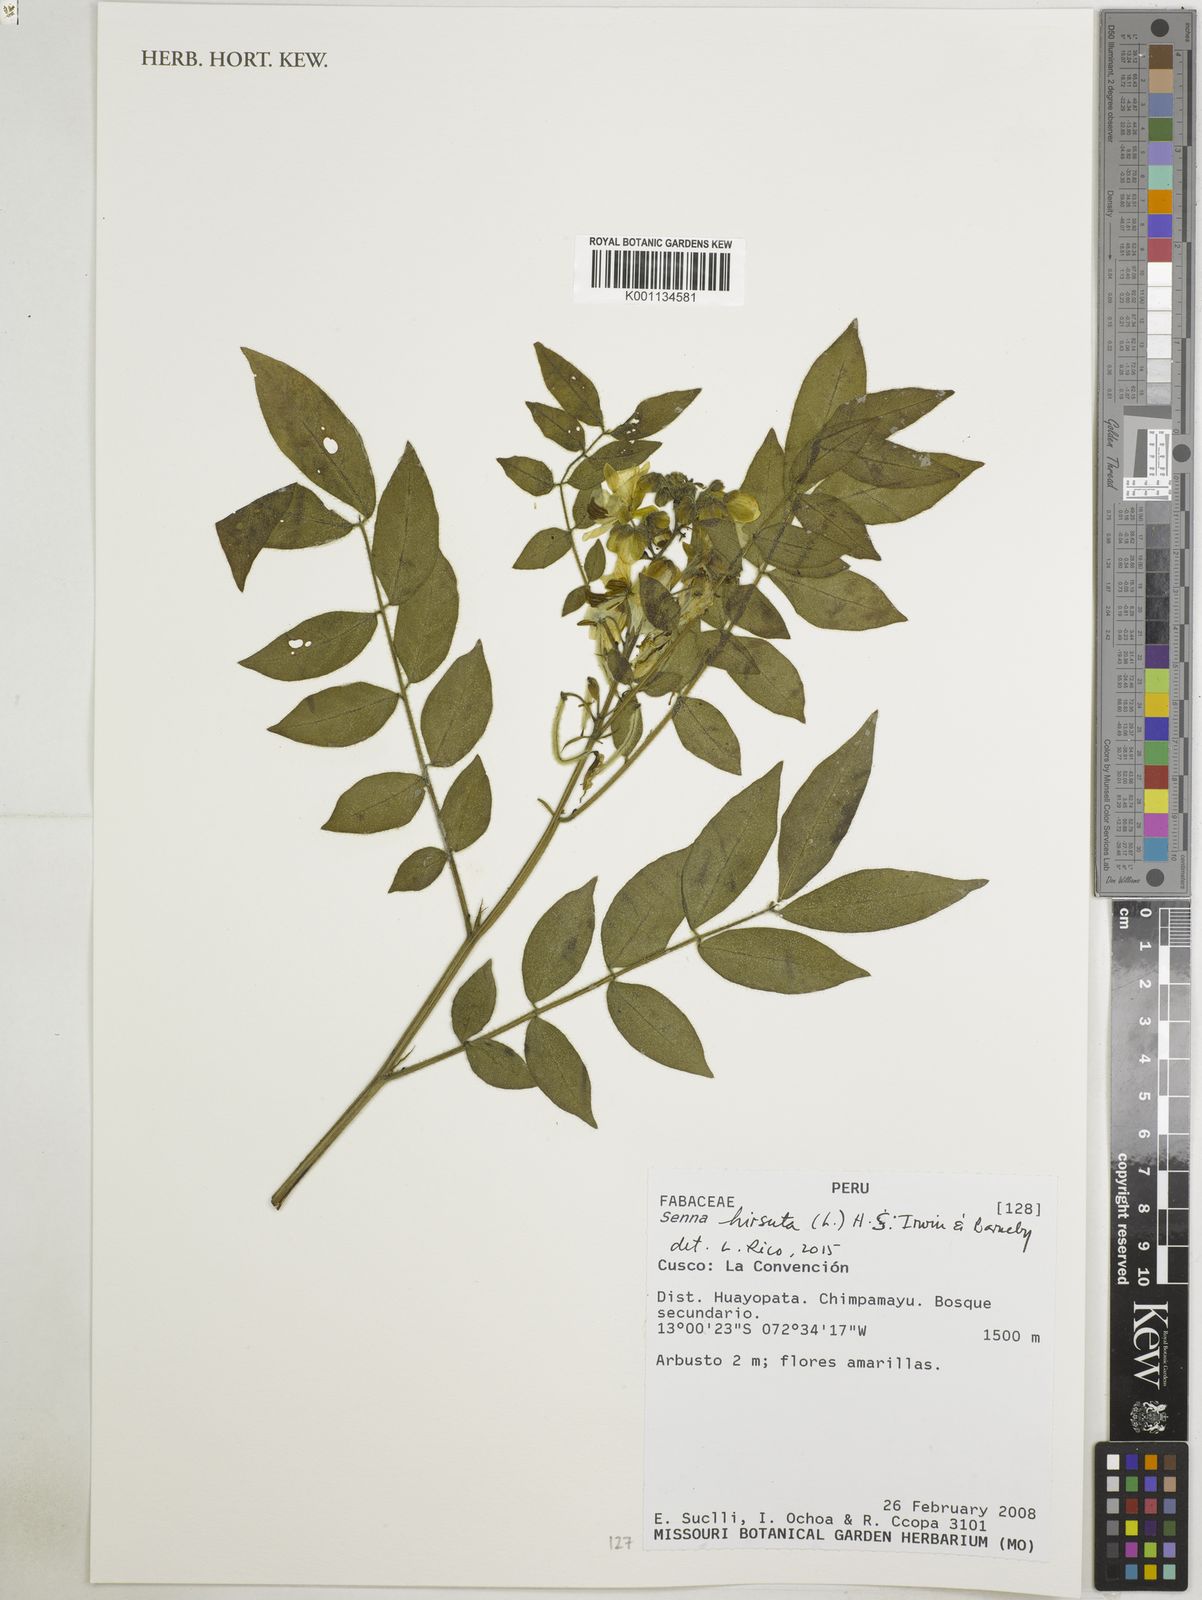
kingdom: Plantae
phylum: Tracheophyta
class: Magnoliopsida
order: Fabales
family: Fabaceae
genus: Senna
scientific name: Senna hirsuta
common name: Woolly senna
